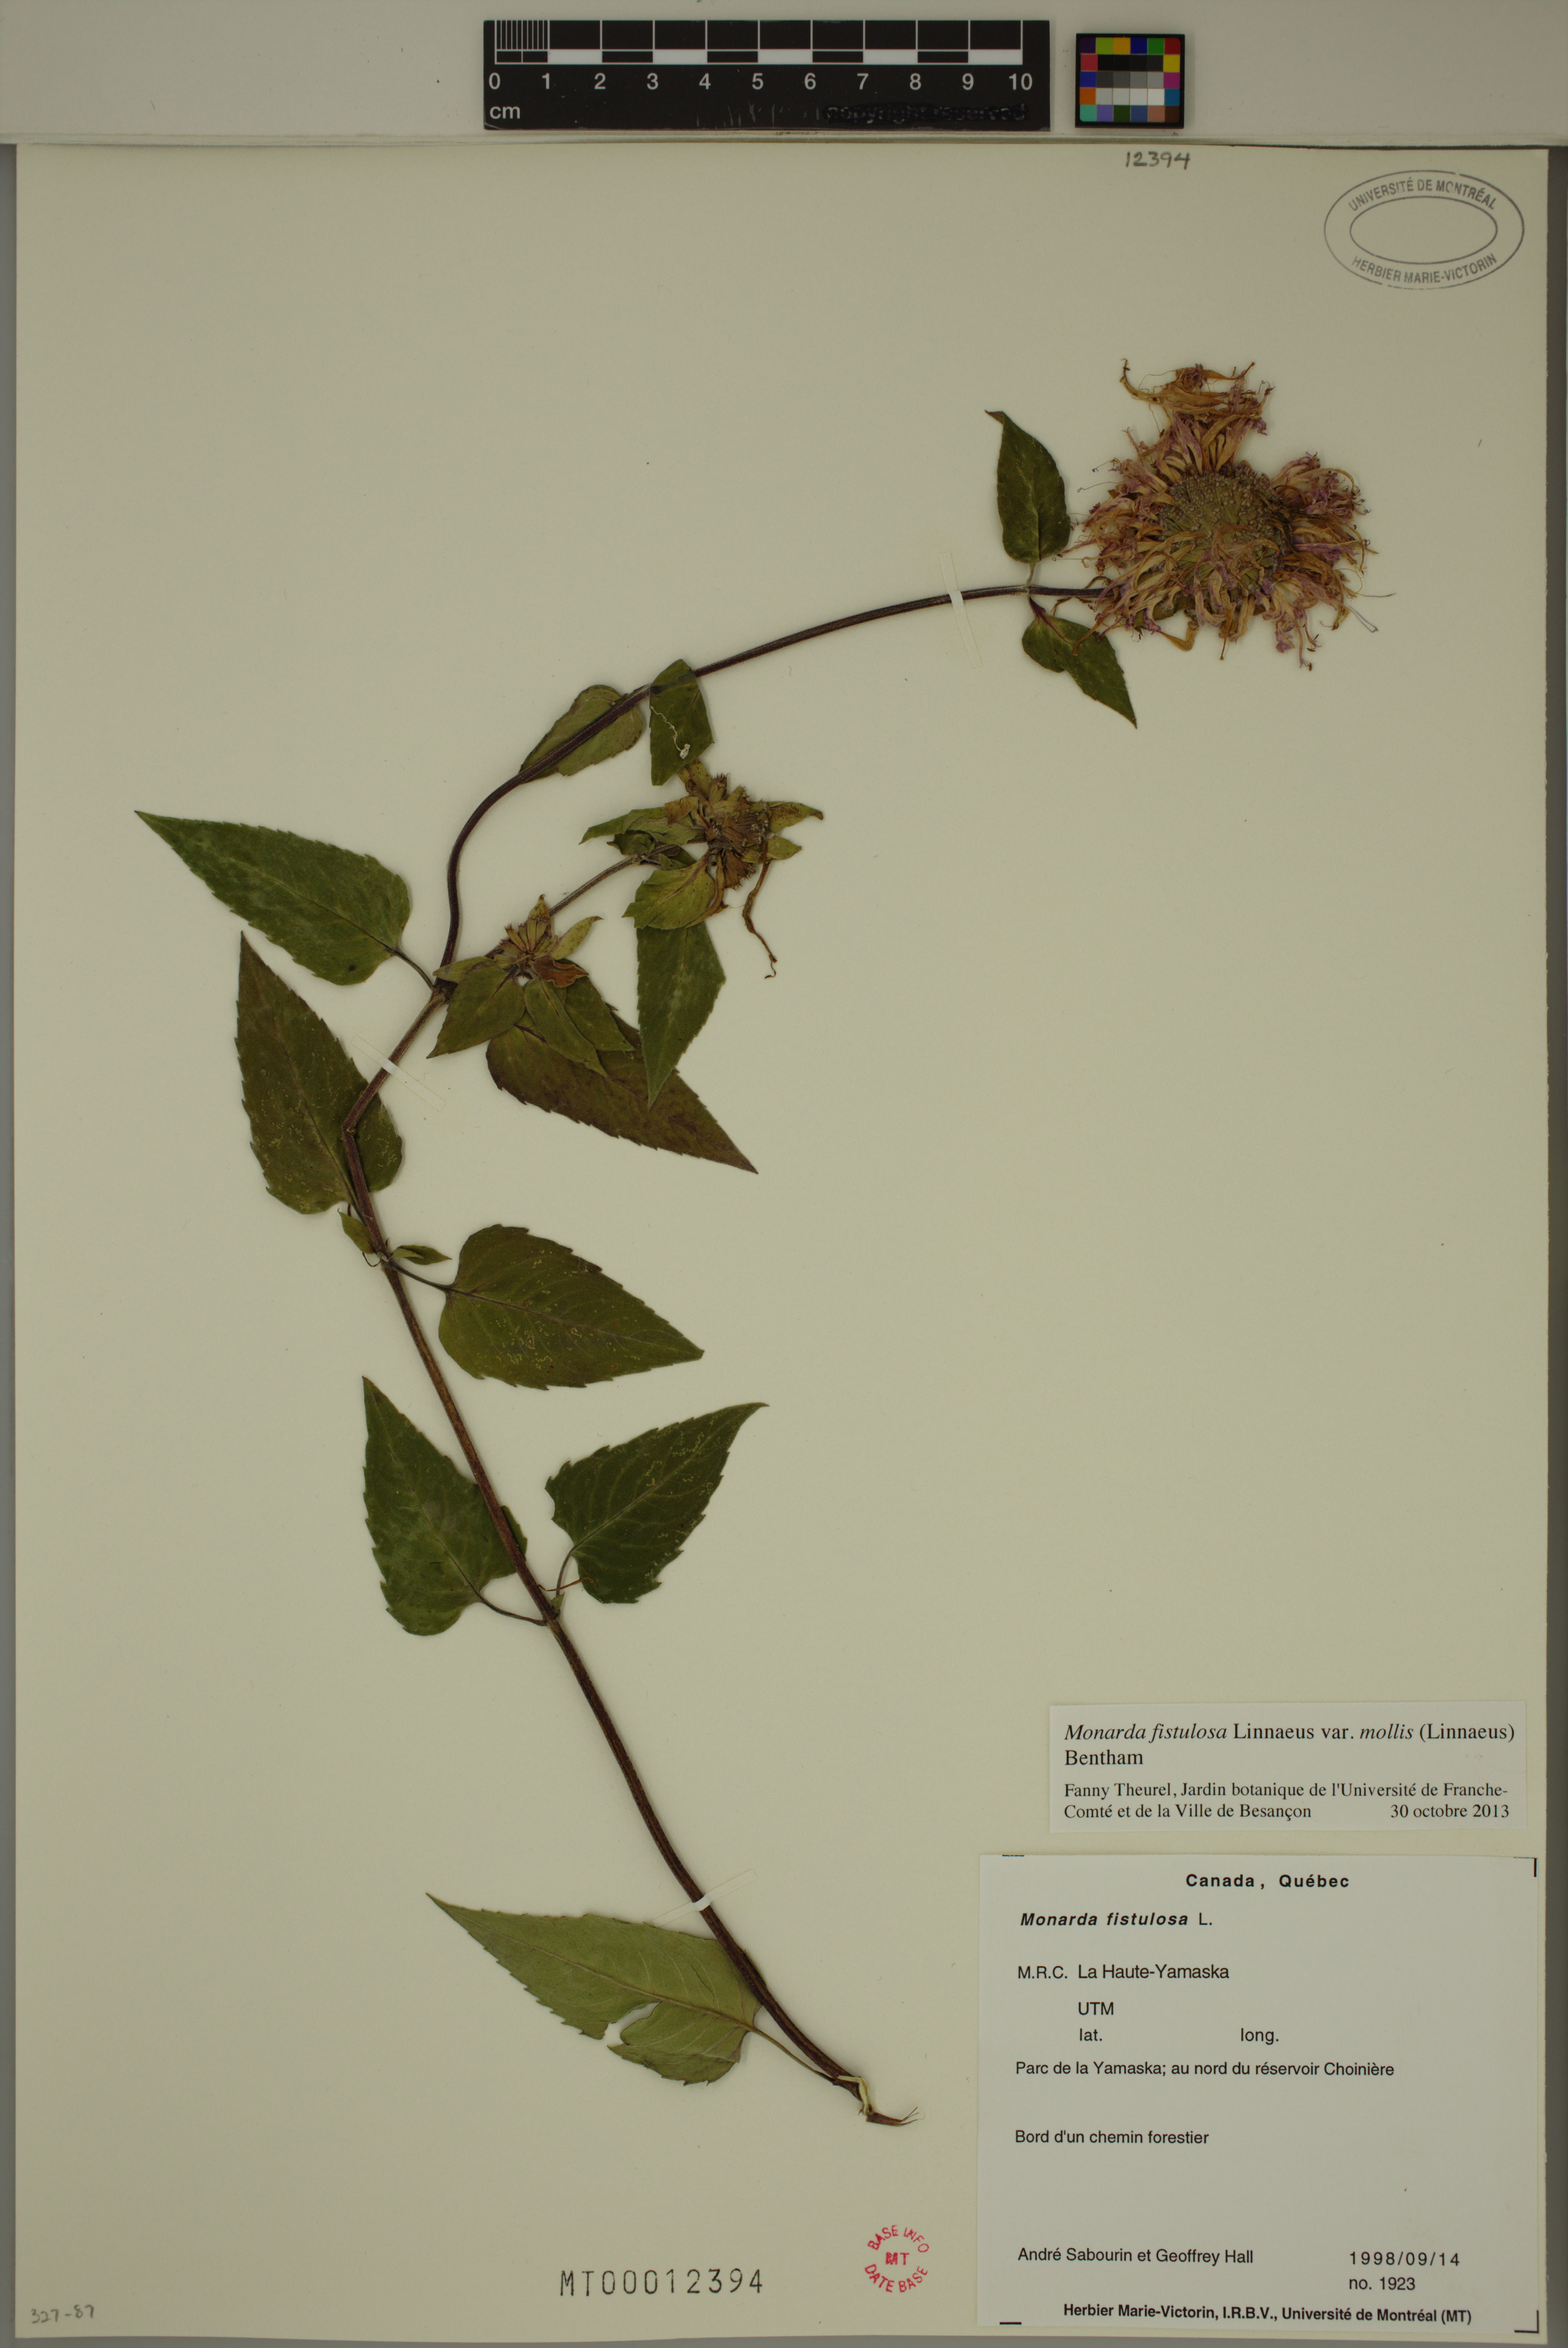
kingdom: Plantae
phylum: Tracheophyta
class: Magnoliopsida
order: Lamiales
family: Lamiaceae
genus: Monarda
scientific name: Monarda fistulosa
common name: Purple beebalm
